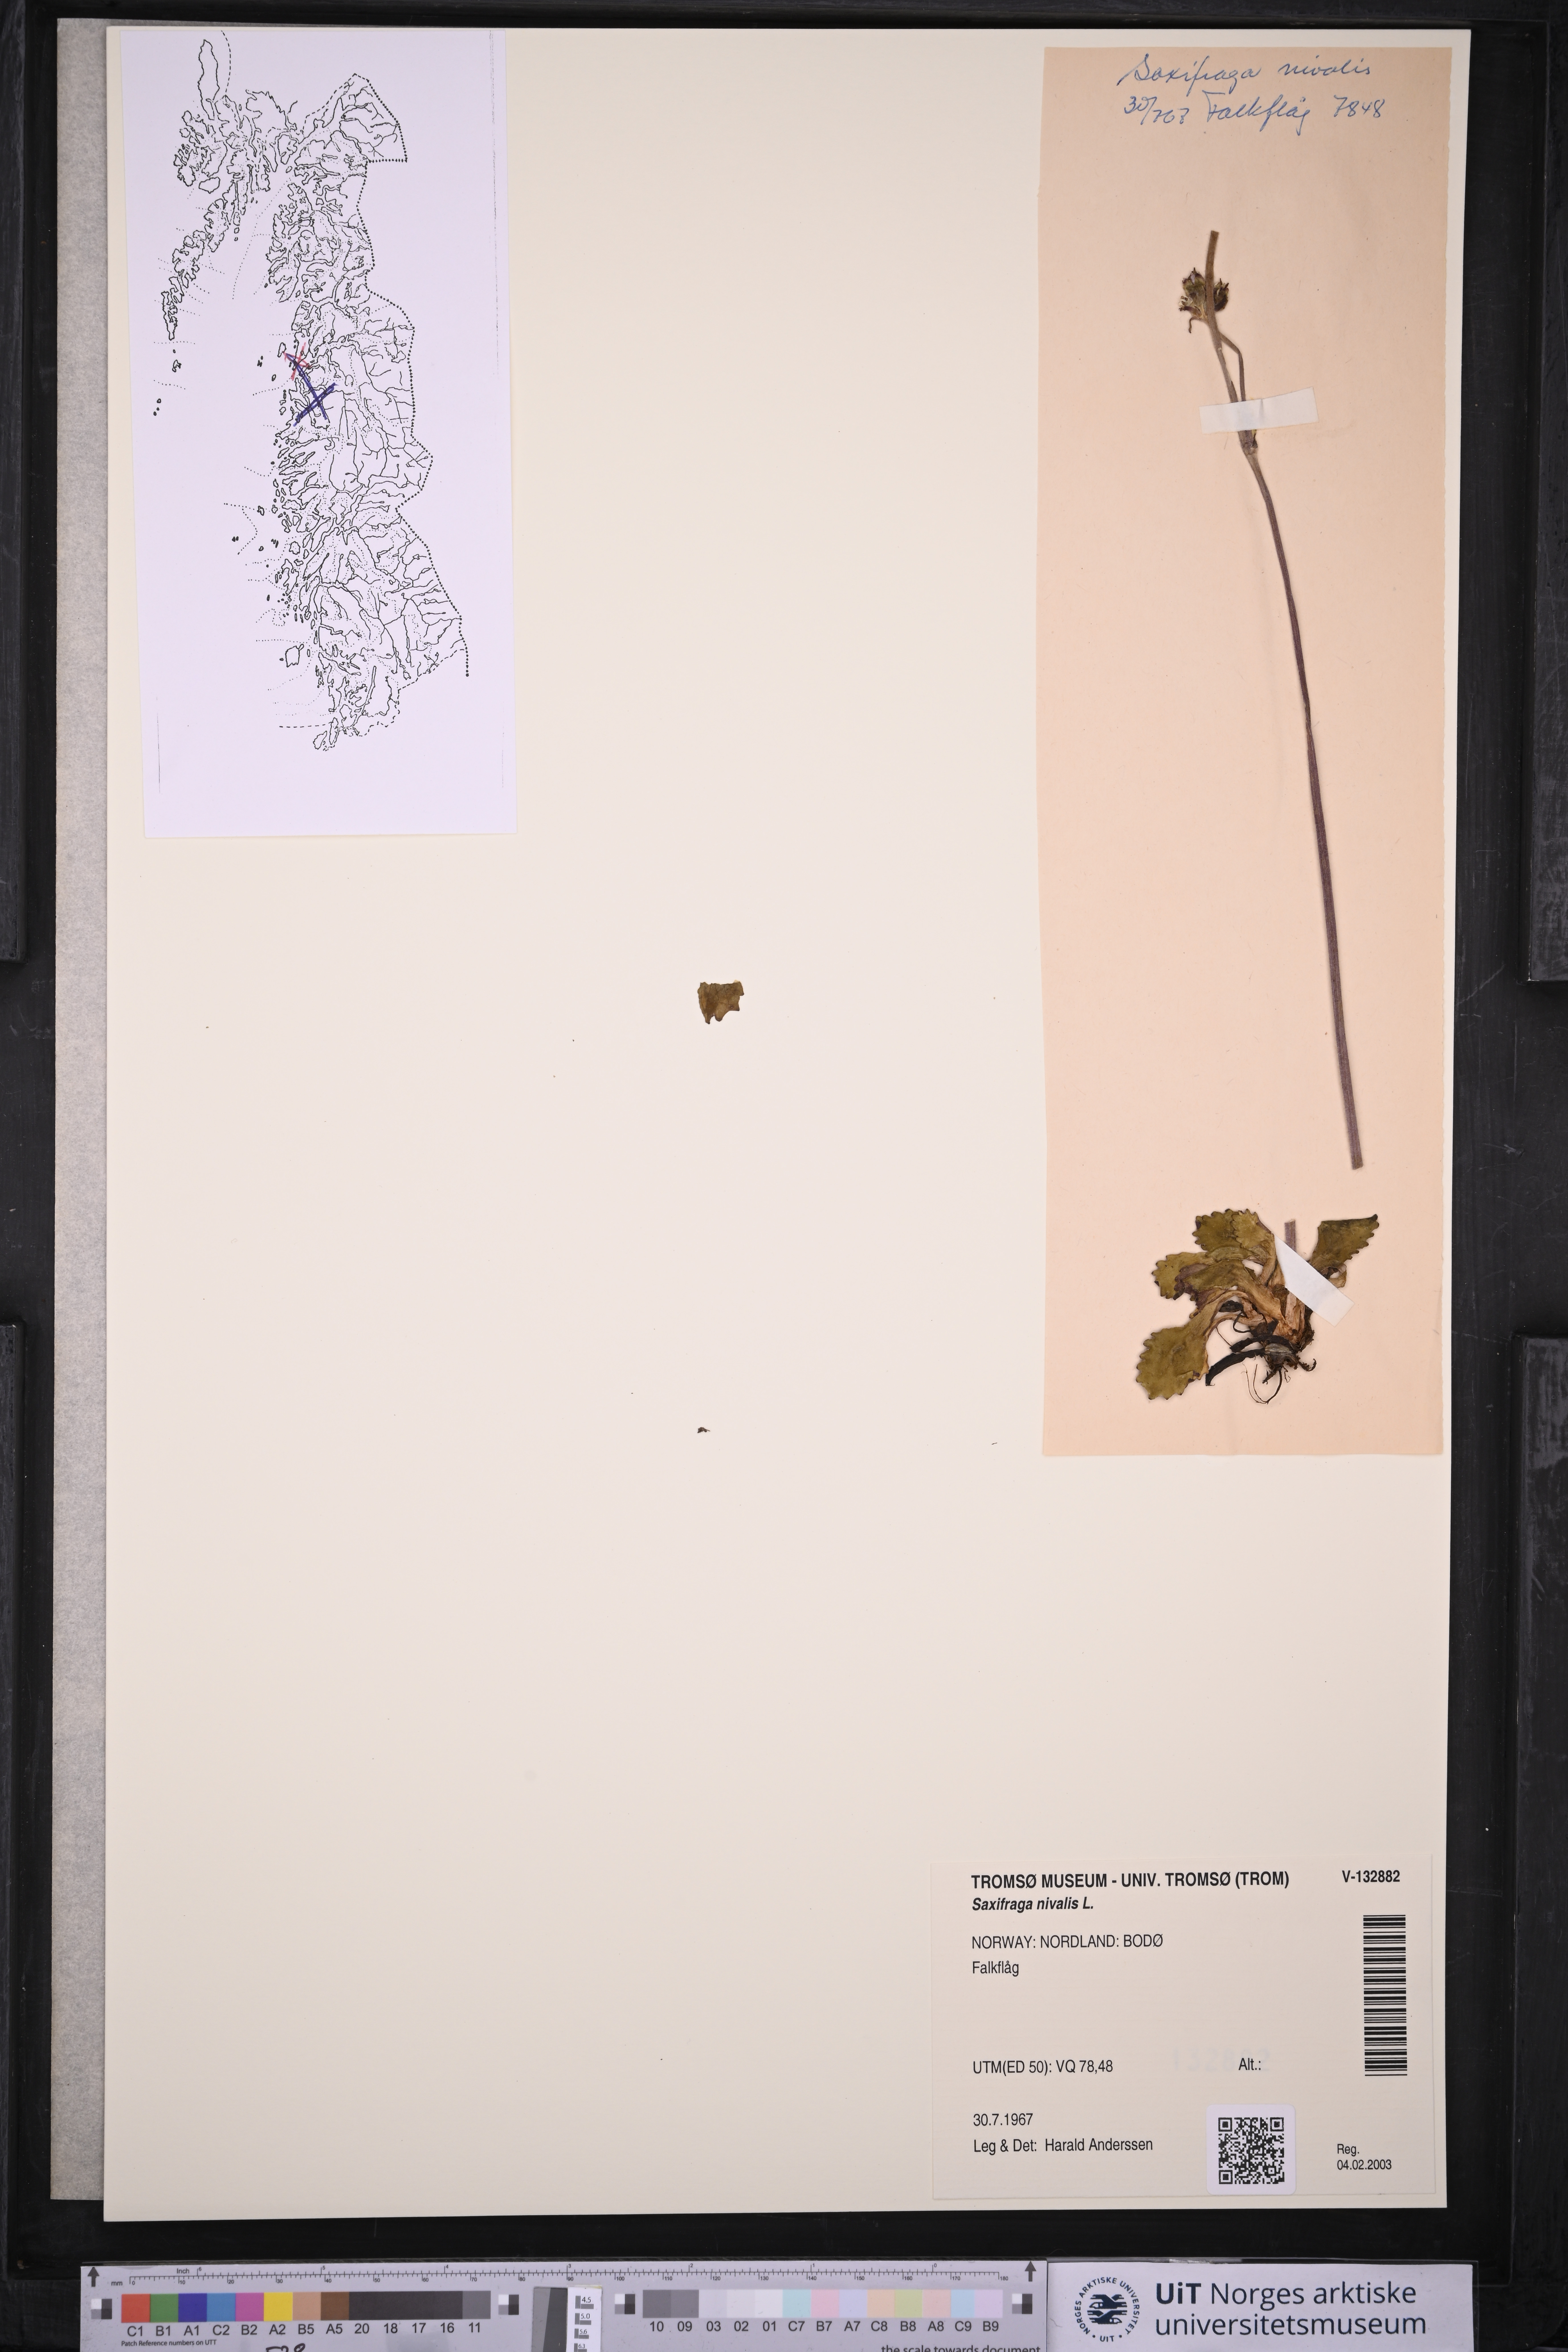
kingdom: Plantae
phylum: Tracheophyta
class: Magnoliopsida
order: Saxifragales
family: Saxifragaceae
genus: Micranthes
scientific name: Micranthes nivalis
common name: Alpine saxifrage
